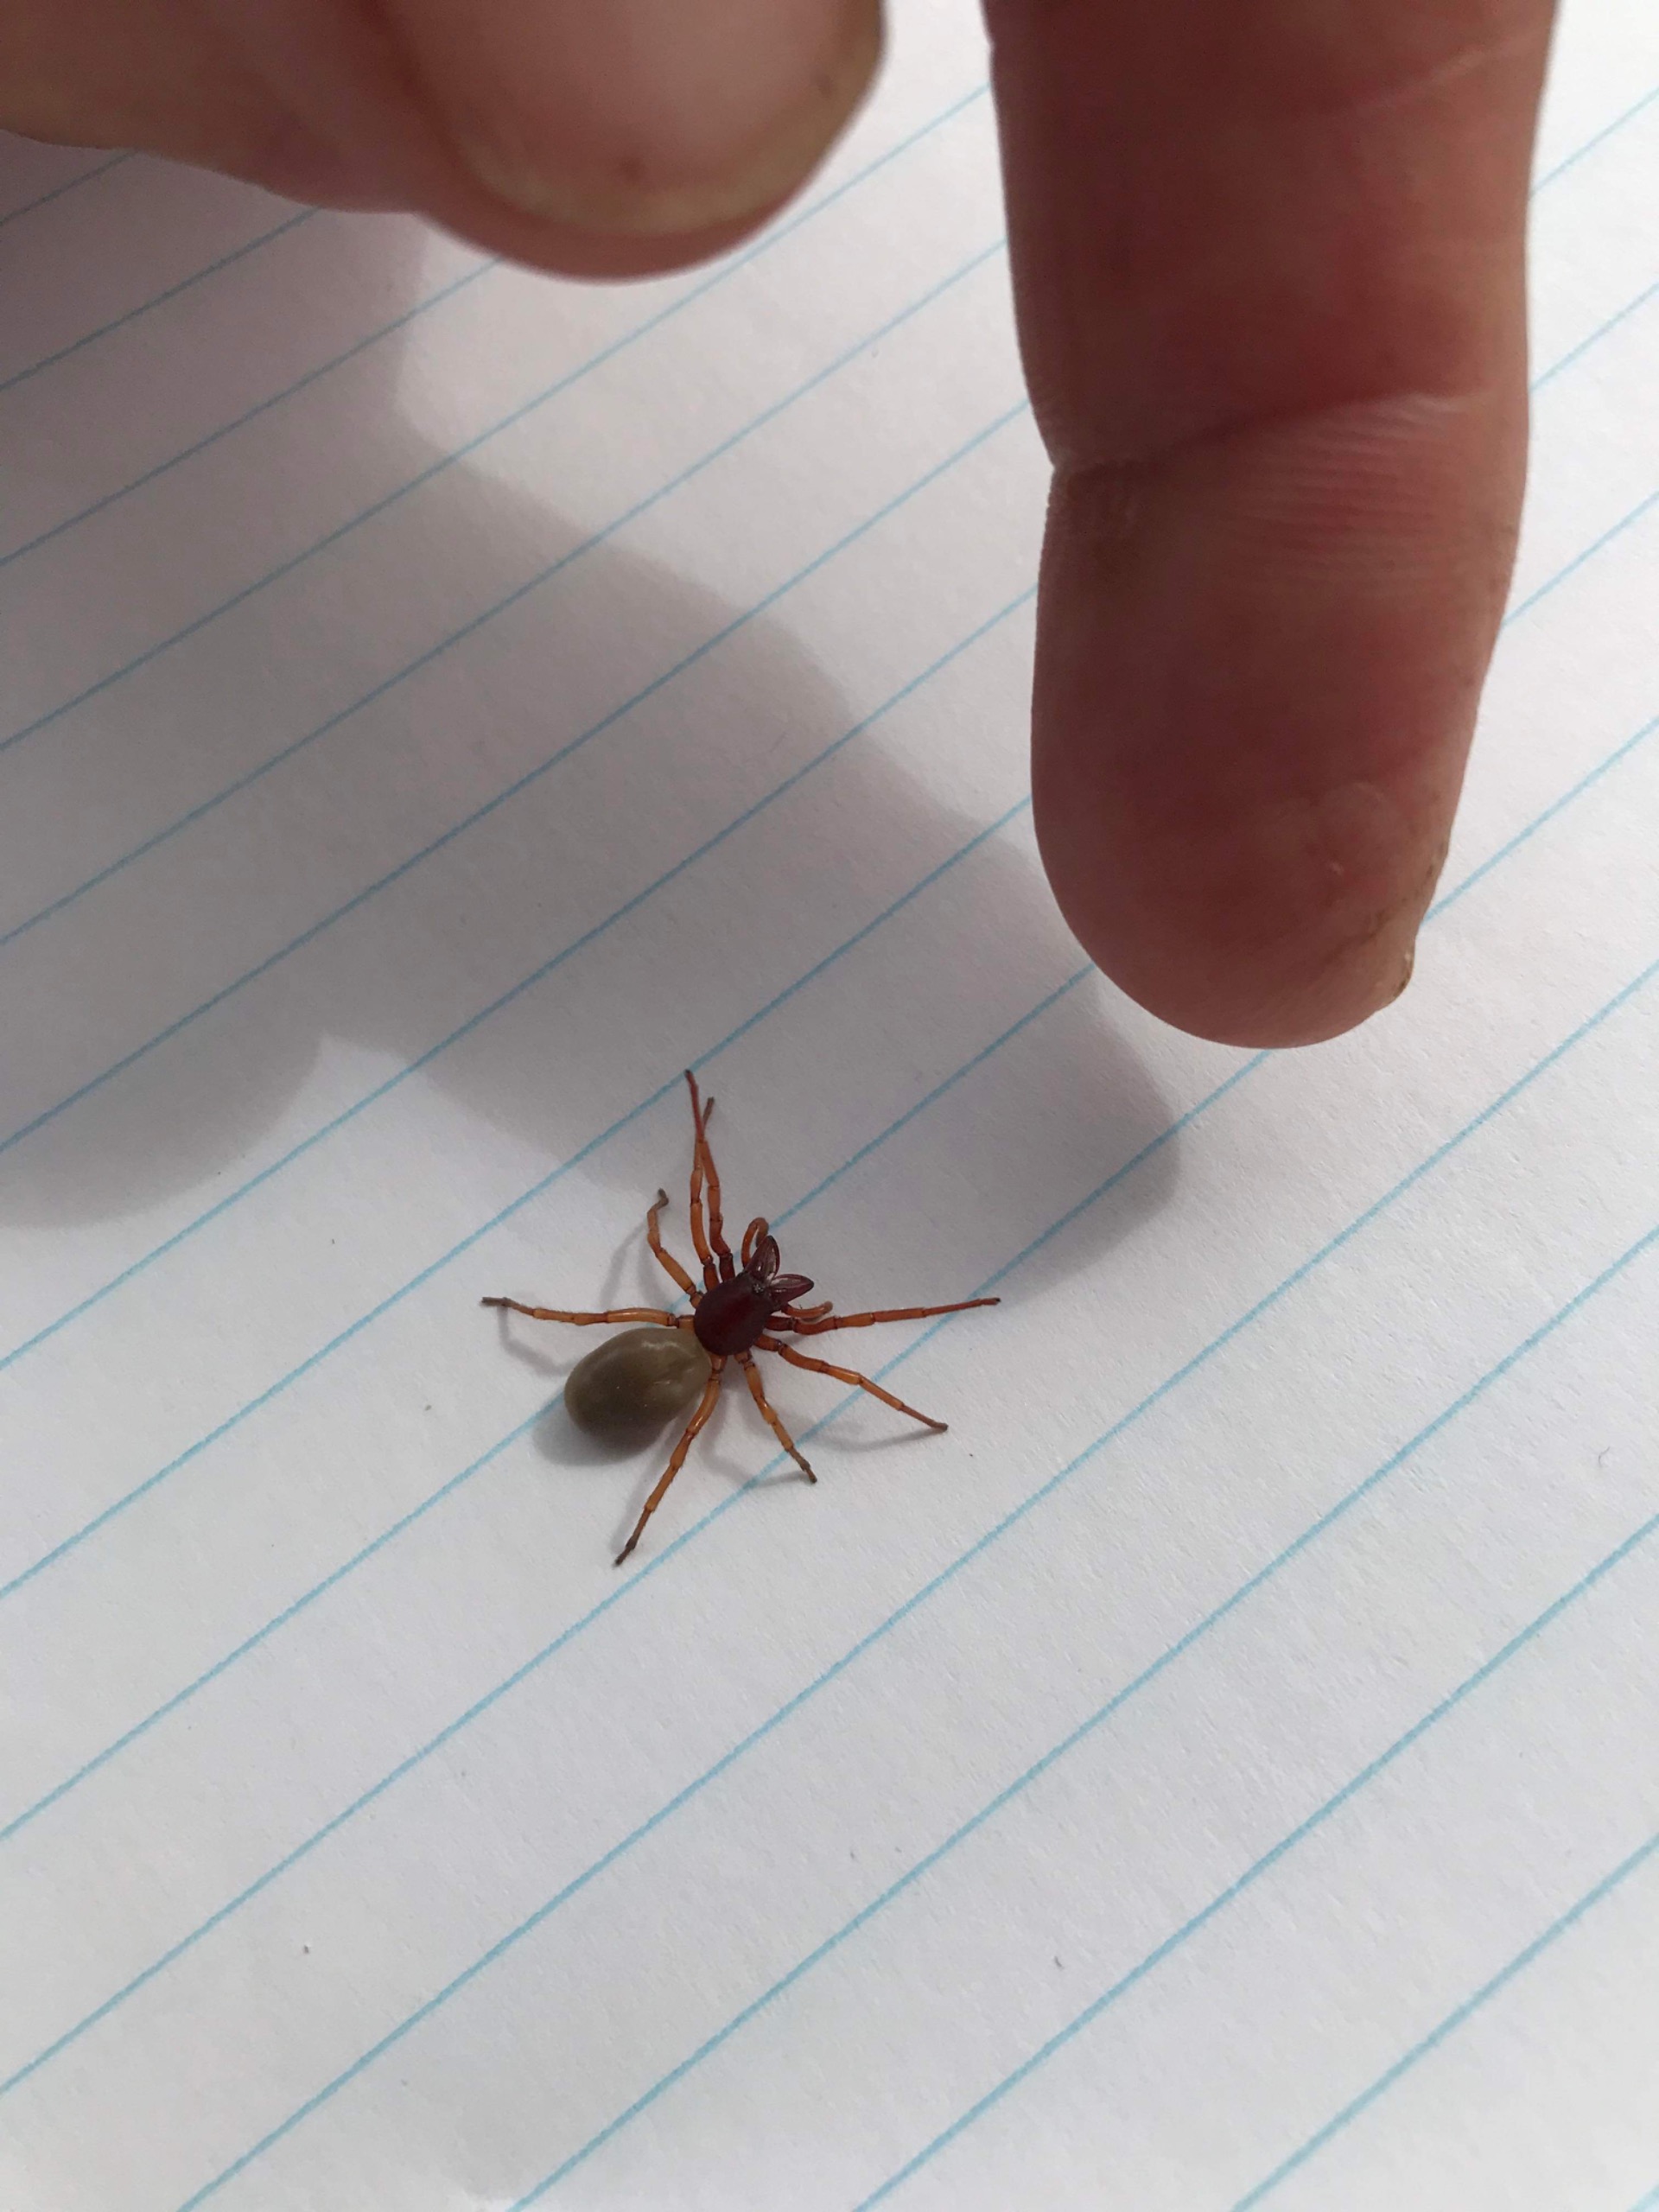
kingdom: Animalia
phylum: Arthropoda
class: Arachnida
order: Araneae
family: Dysderidae
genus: Dysdera
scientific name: Dysdera crocata
